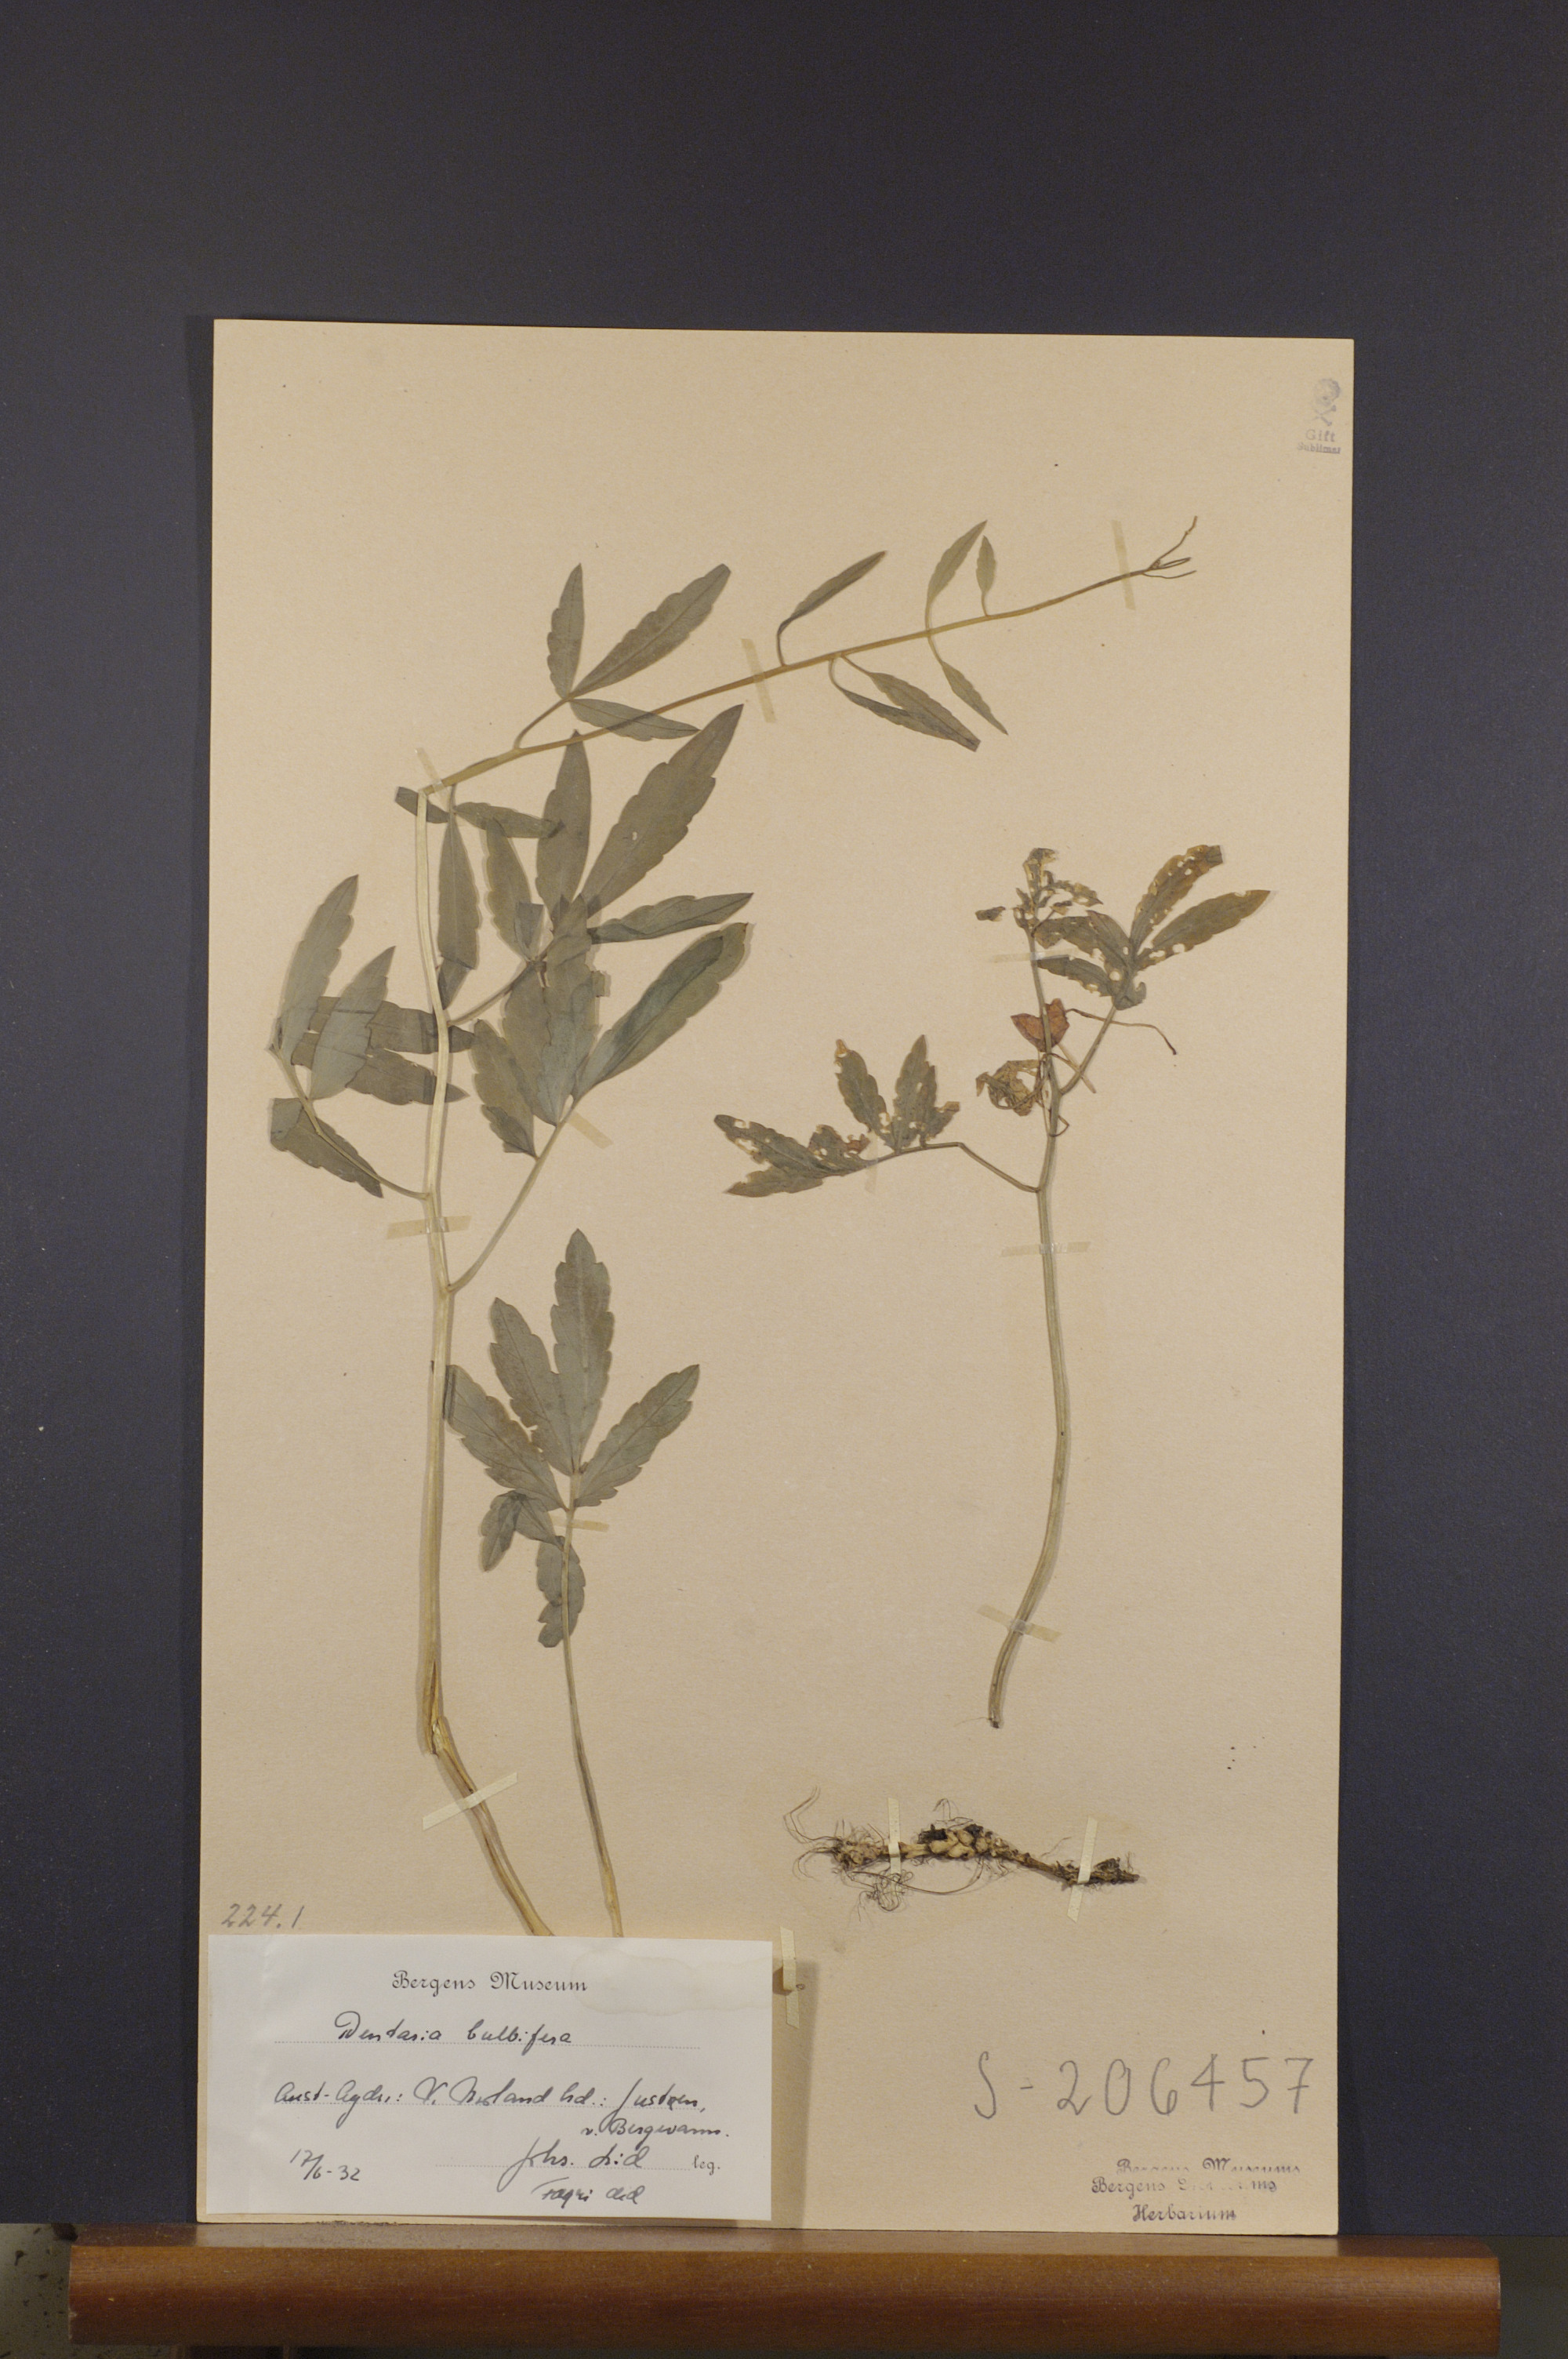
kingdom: Plantae
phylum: Tracheophyta
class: Magnoliopsida
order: Brassicales
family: Brassicaceae
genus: Cardamine
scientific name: Cardamine bulbifera
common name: Coralroot bittercress
